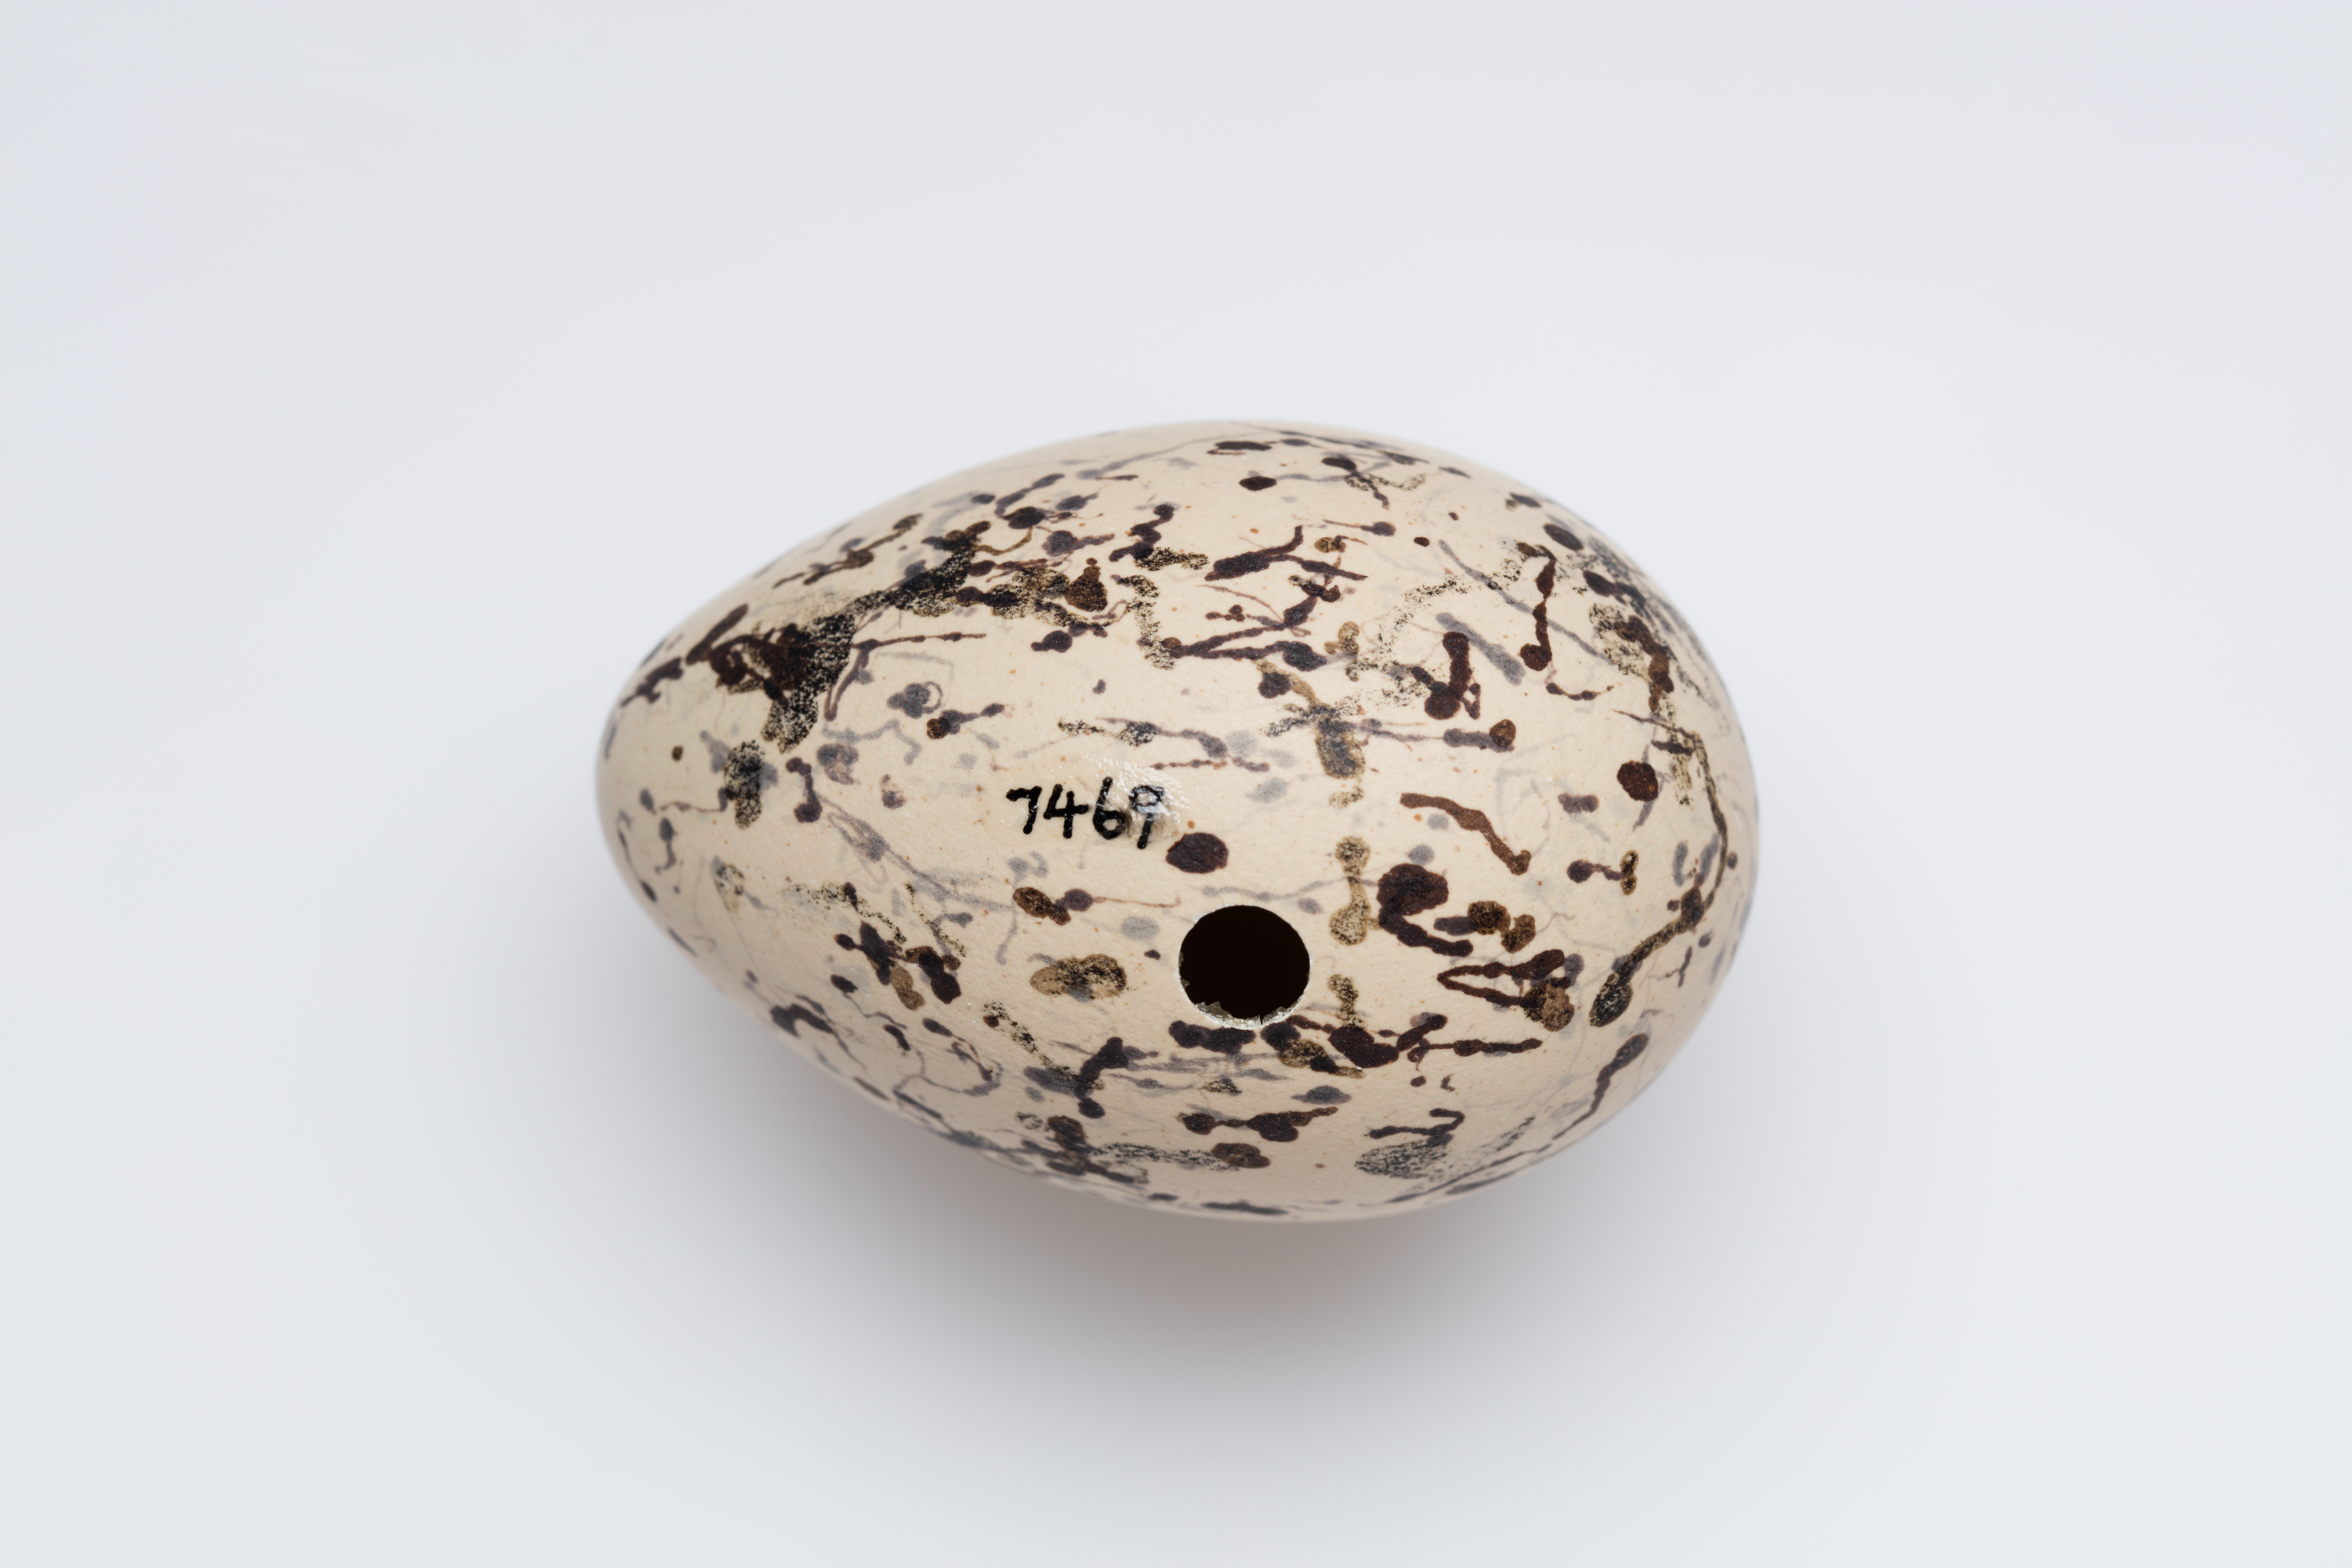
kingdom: Animalia
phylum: Chordata
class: Aves
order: Charadriiformes
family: Haematopodidae
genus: Haematopus
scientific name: Haematopus unicolor
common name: Variable oystercatcher
